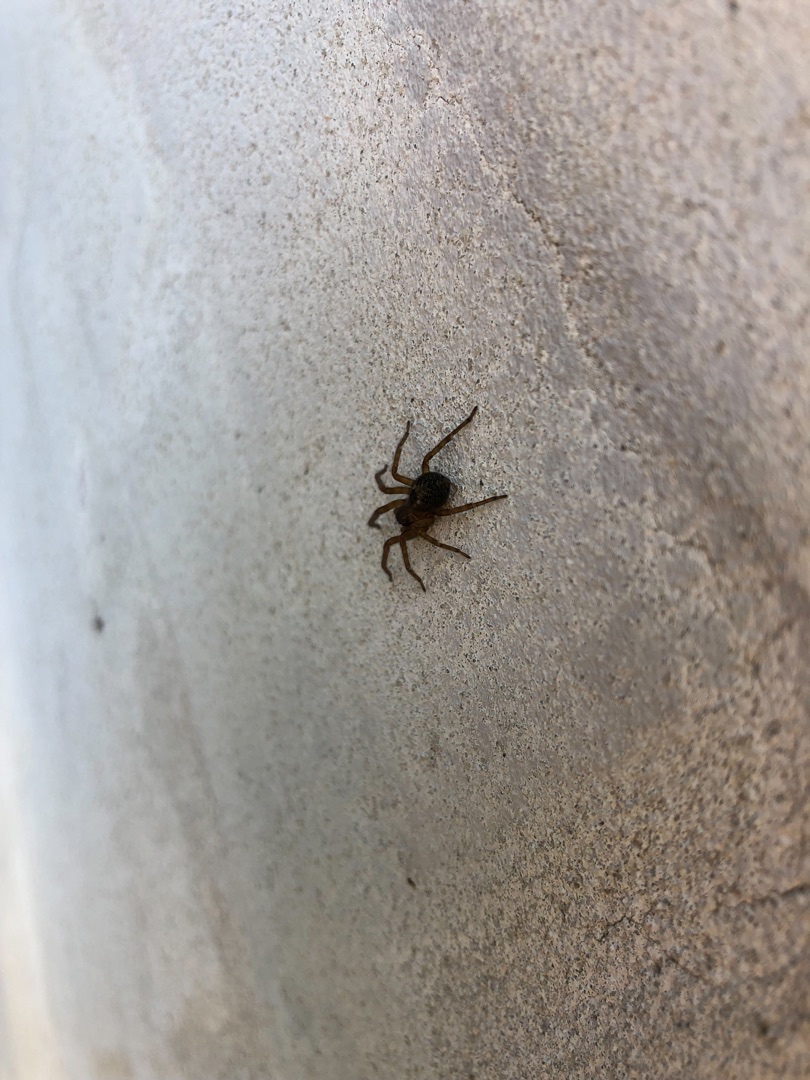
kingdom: Animalia
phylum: Arthropoda
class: Arachnida
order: Araneae
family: Amaurobiidae
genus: Amaurobius
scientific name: Amaurobius
